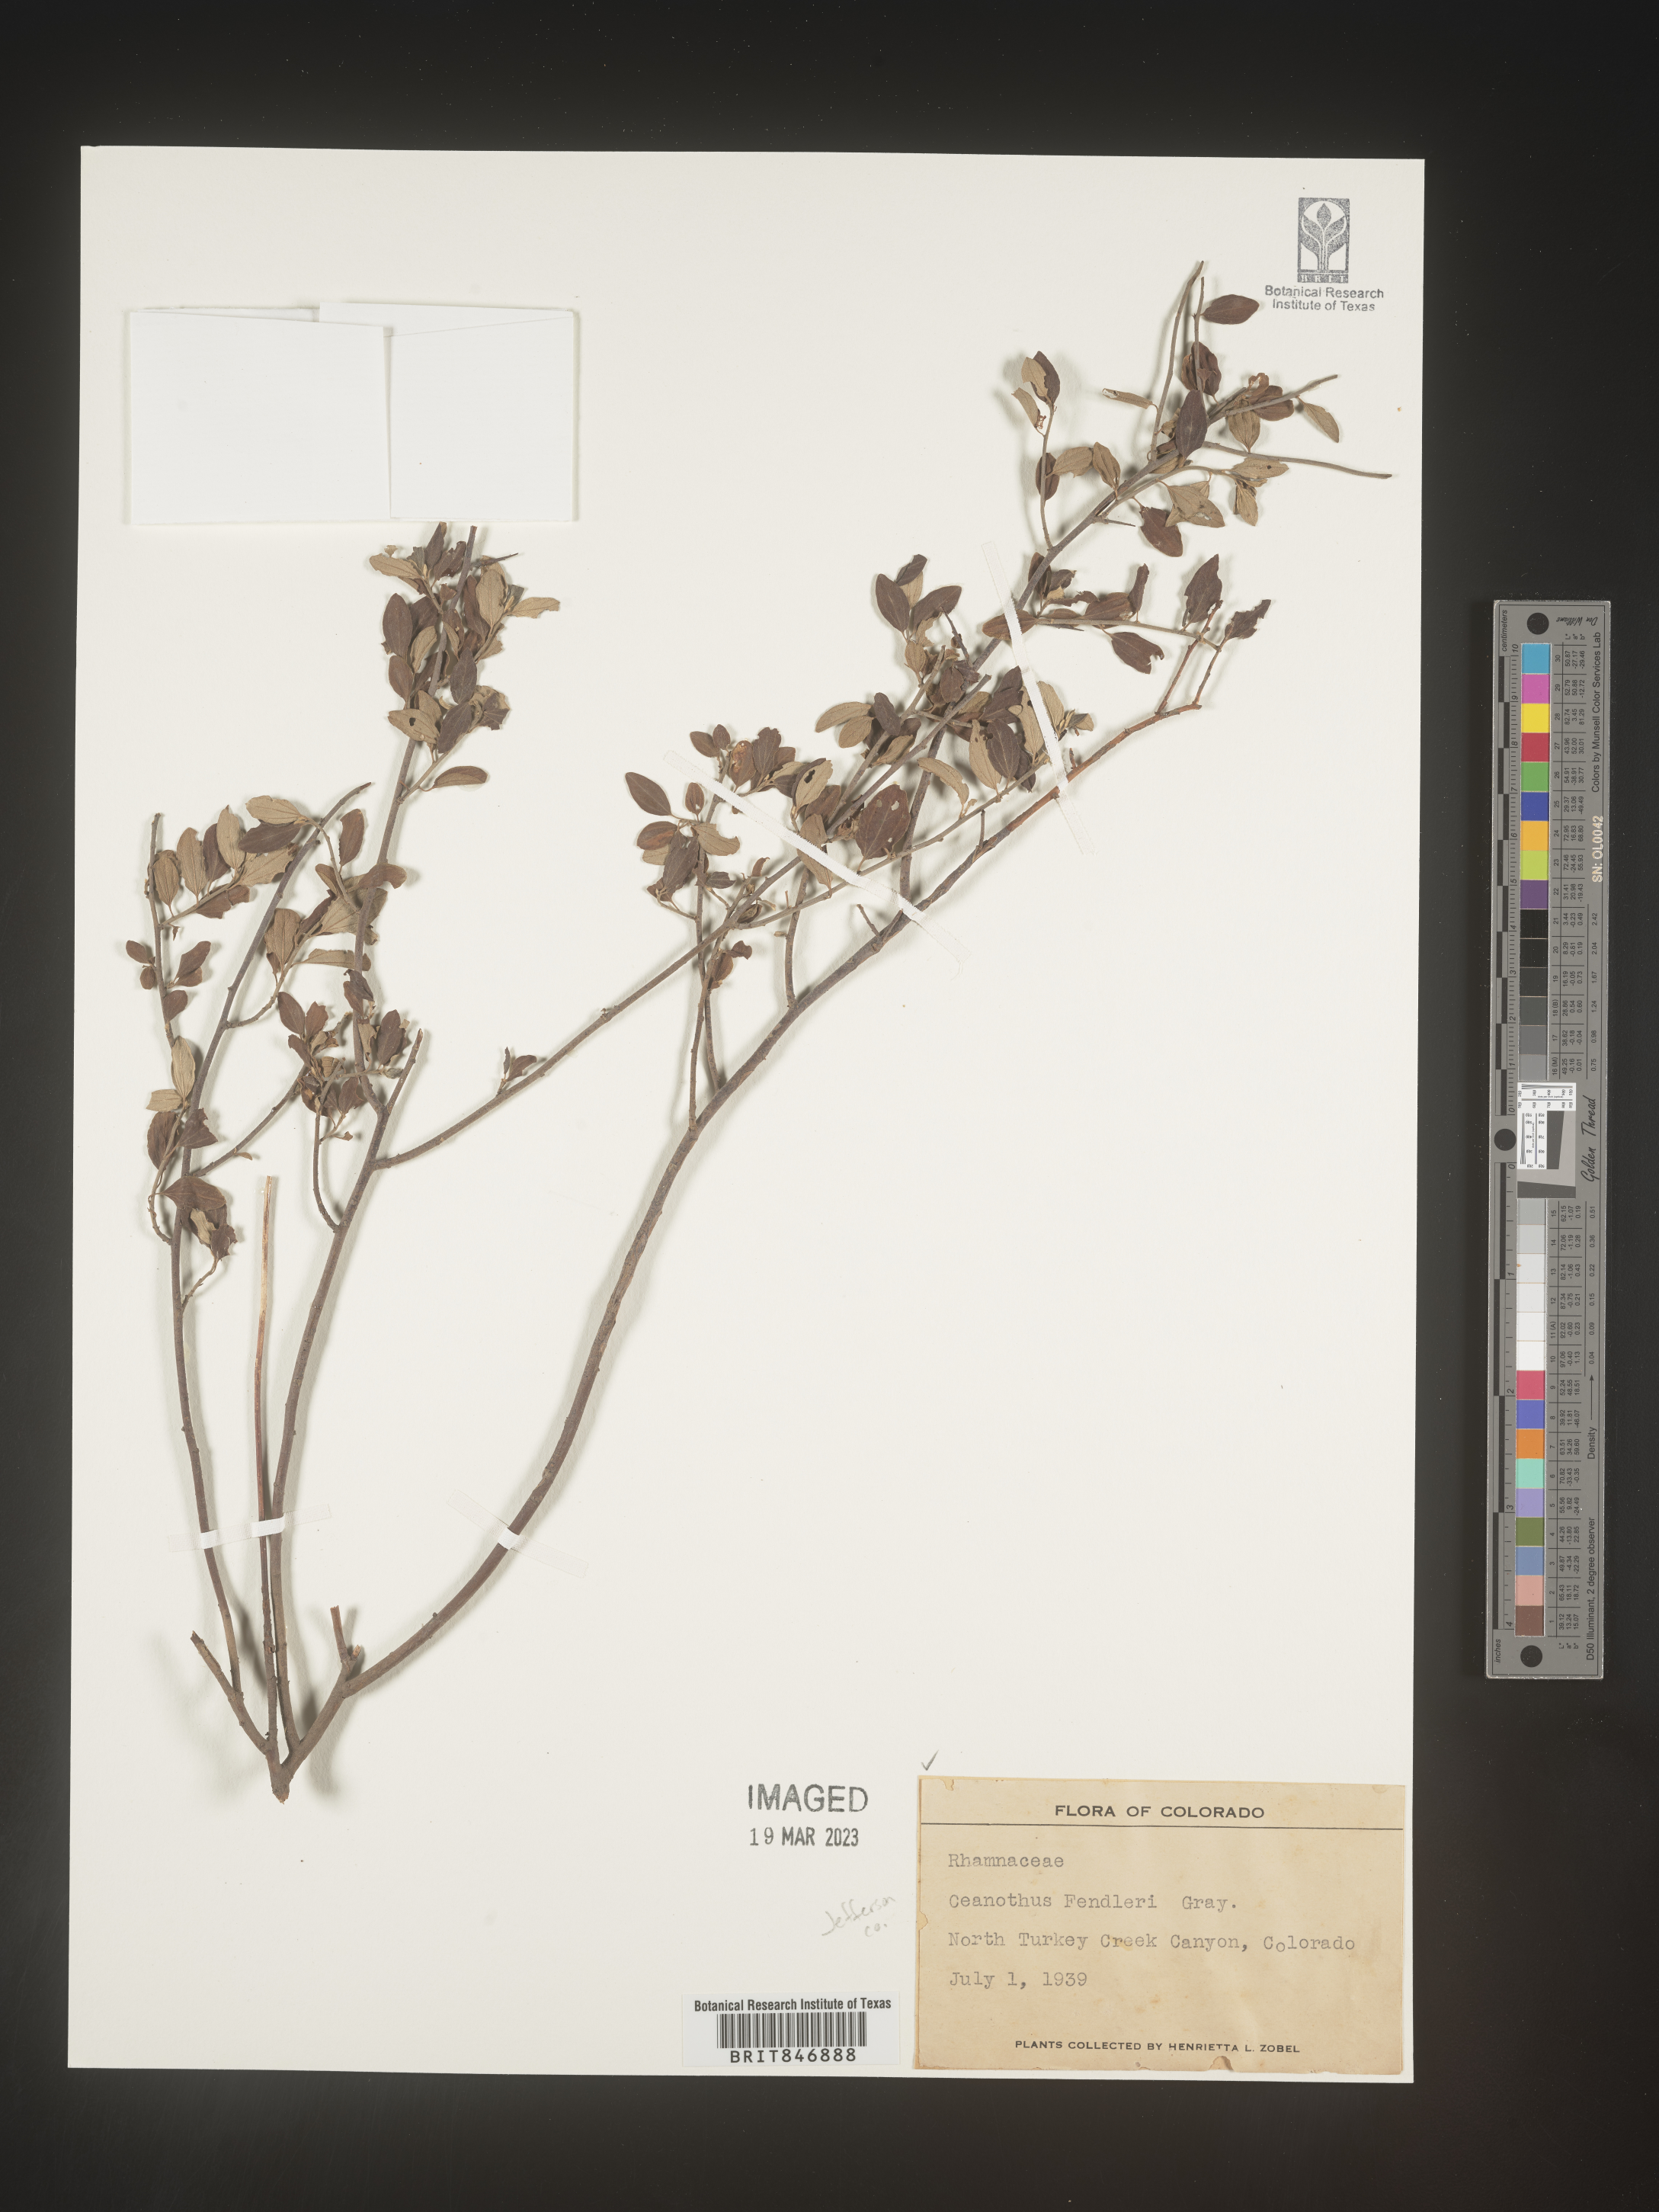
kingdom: Plantae
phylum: Tracheophyta
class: Magnoliopsida
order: Rosales
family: Rhamnaceae
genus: Ceanothus
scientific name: Ceanothus fendleri
